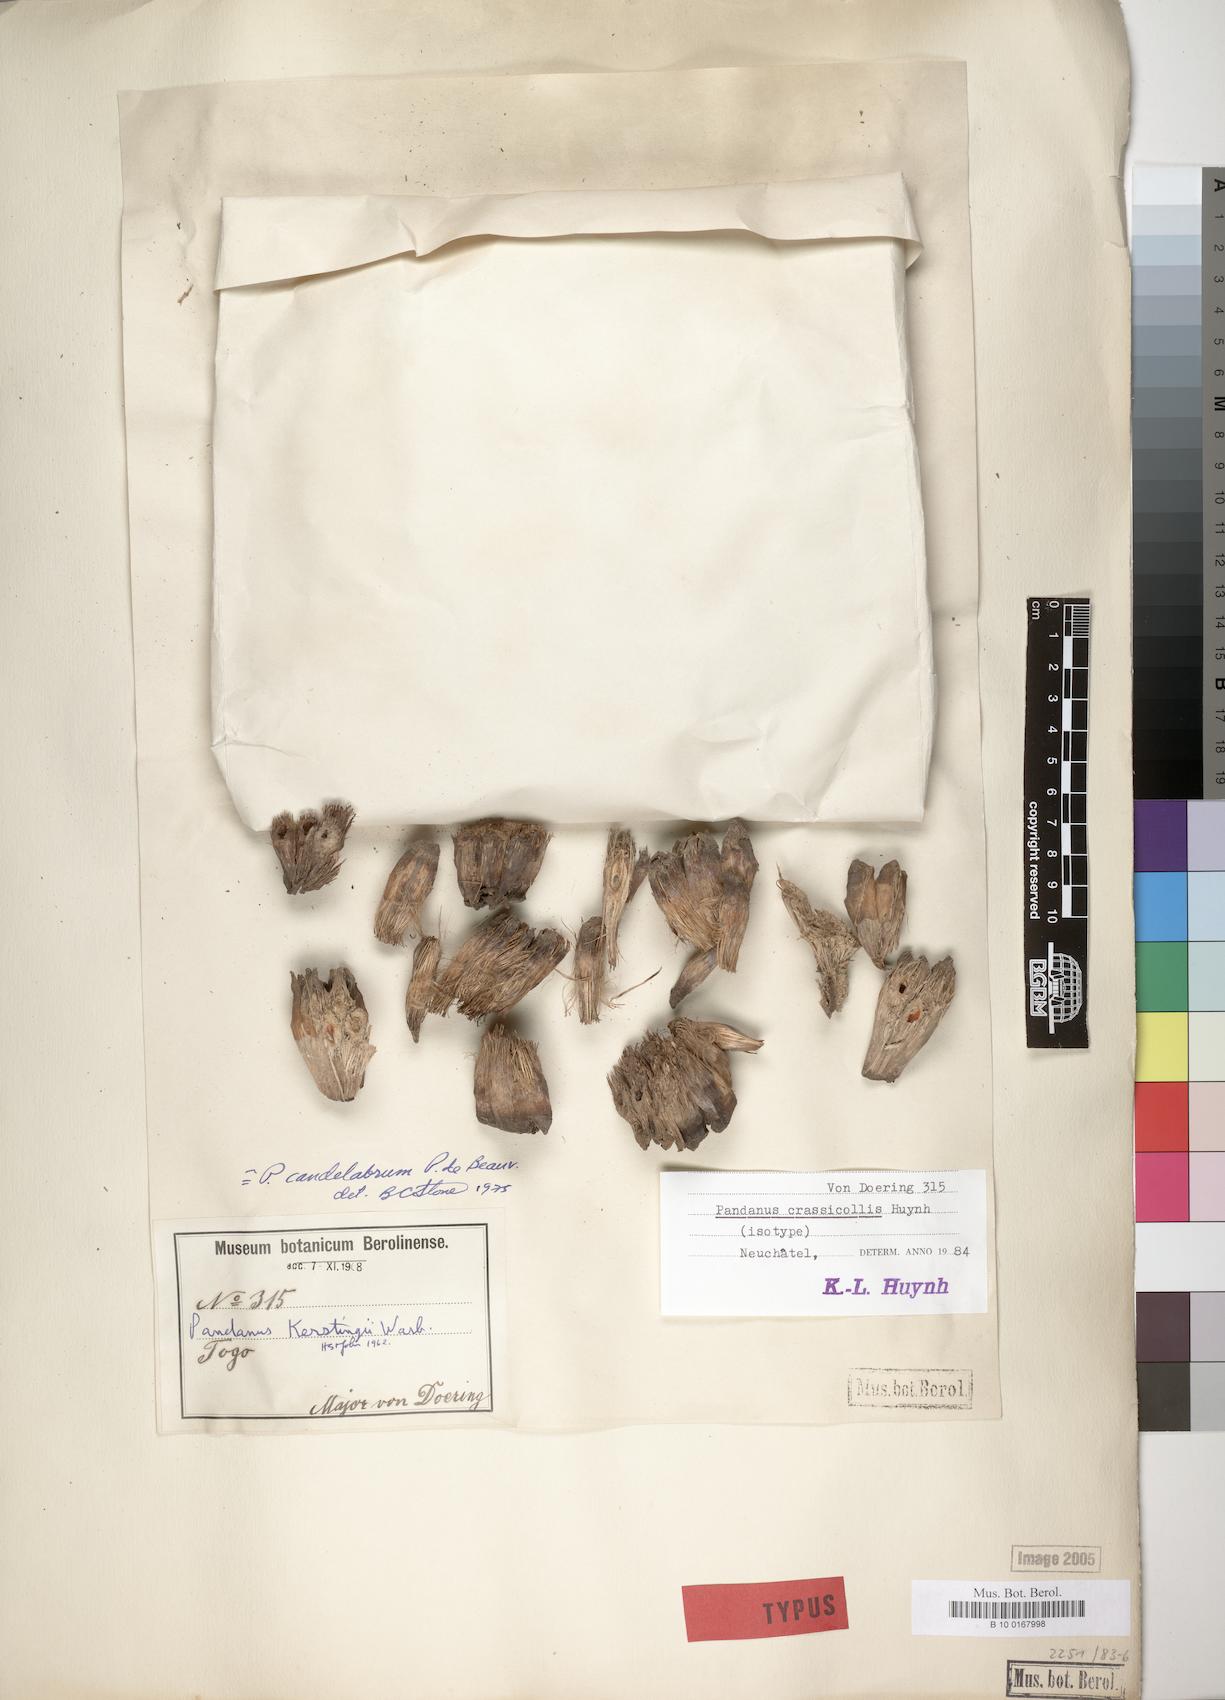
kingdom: Plantae
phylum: Tracheophyta
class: Liliopsida
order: Pandanales
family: Pandanaceae
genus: Pandanus
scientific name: Pandanus candelabrum
